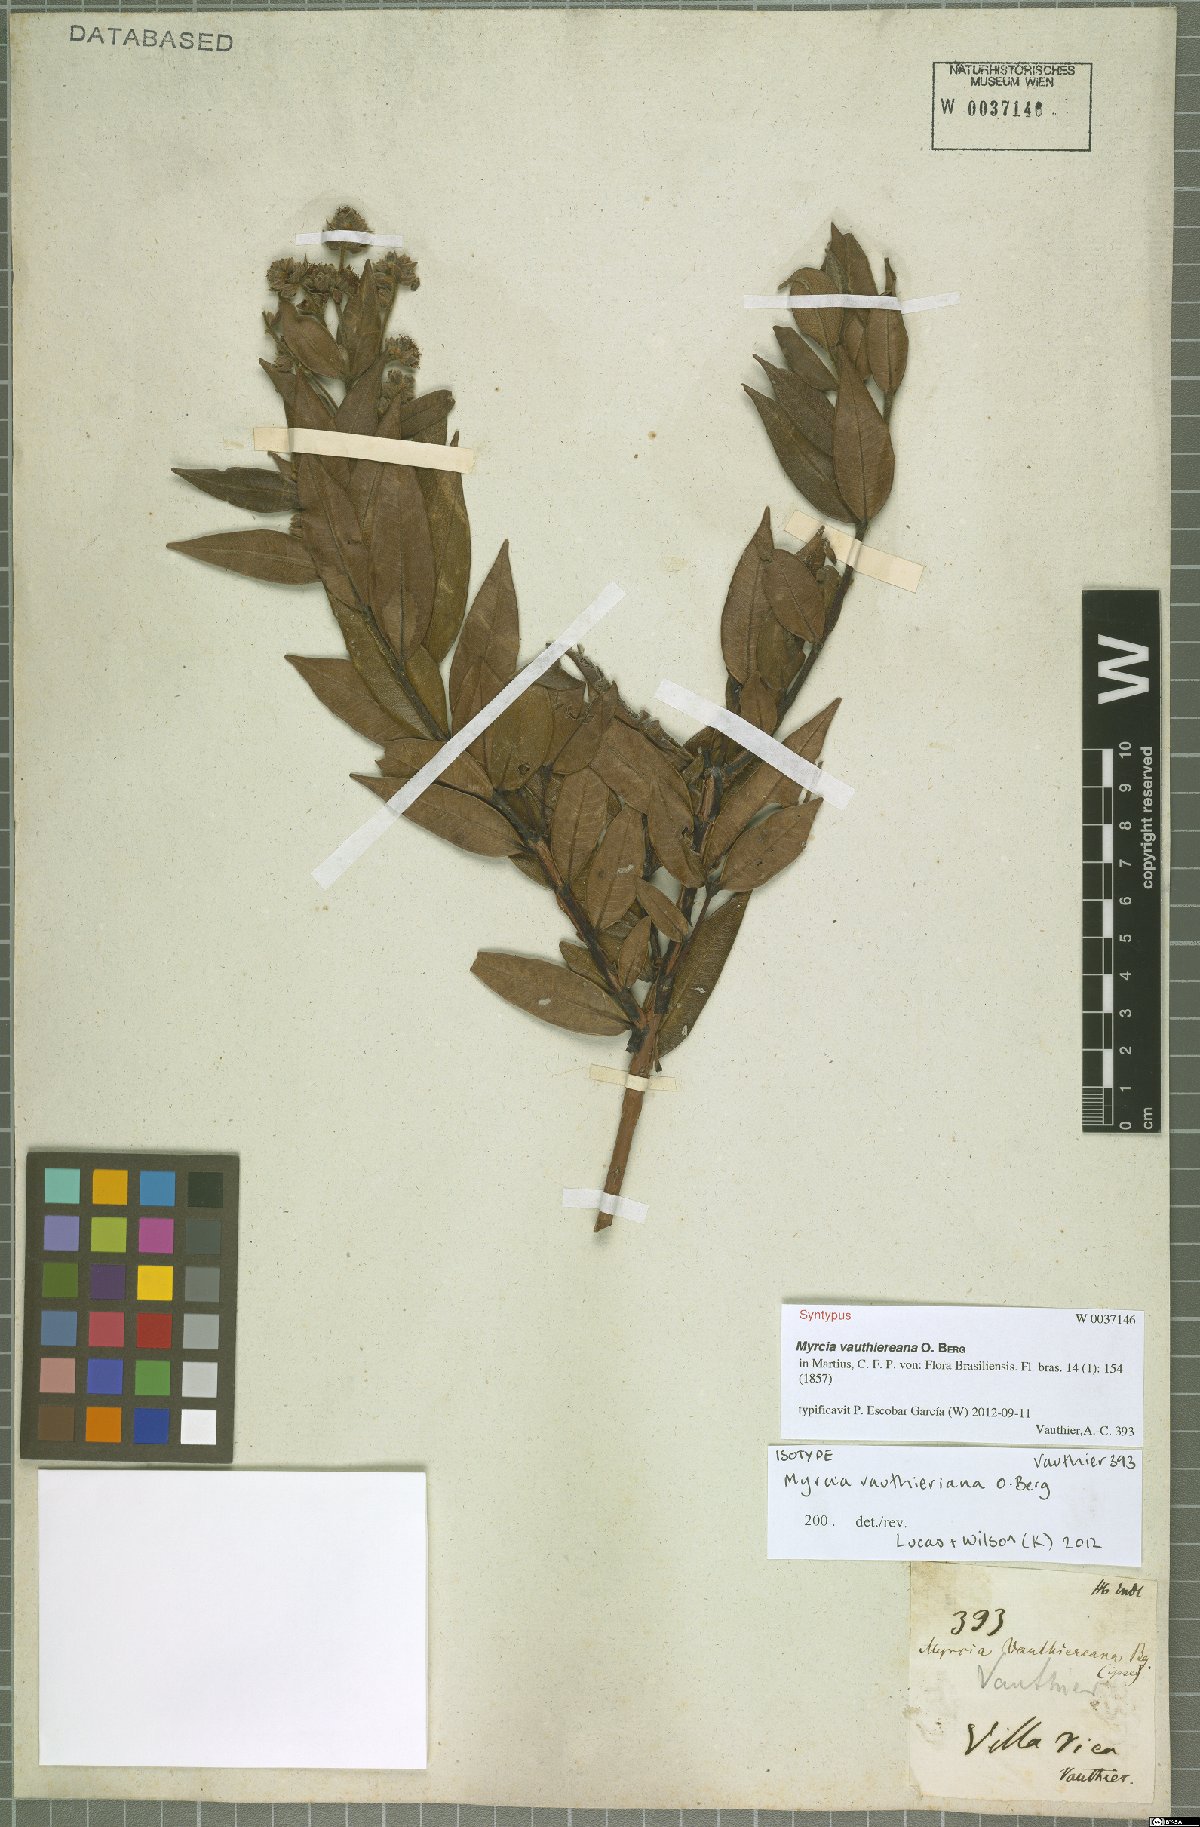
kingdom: Plantae
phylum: Tracheophyta
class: Magnoliopsida
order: Myrtales
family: Myrtaceae
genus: Myrcia
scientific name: Myrcia vauthieriana
